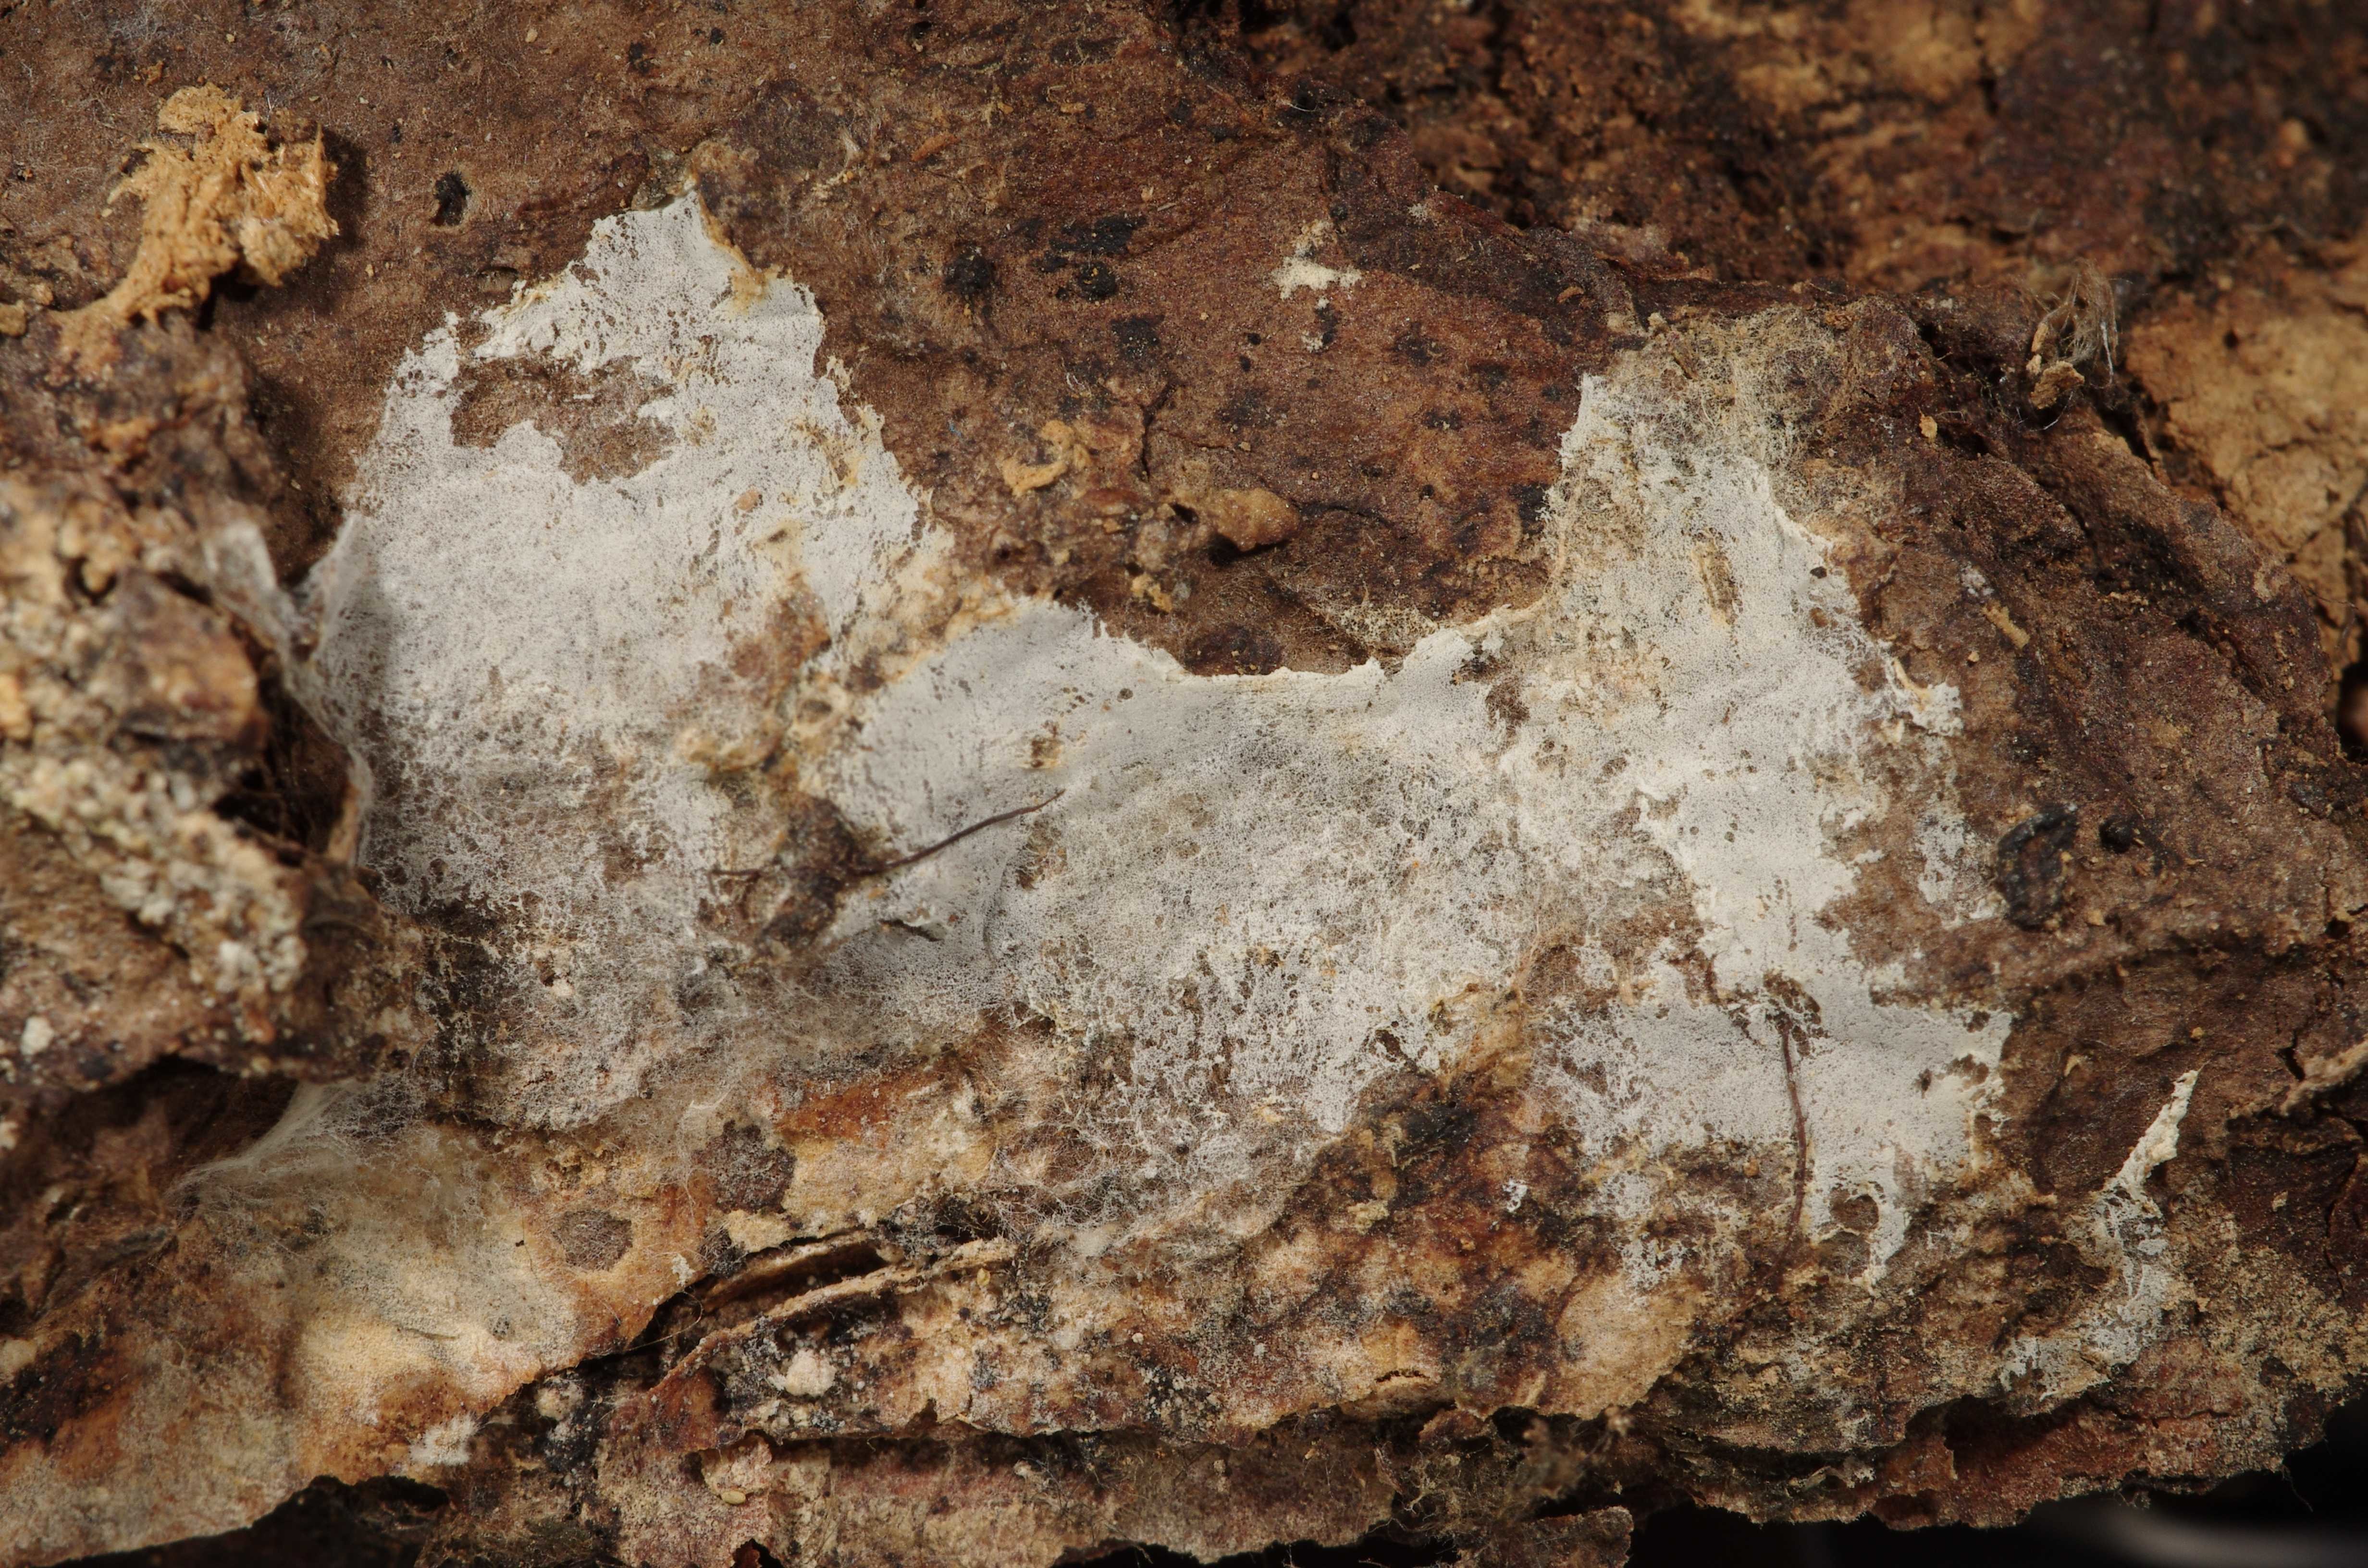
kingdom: Fungi
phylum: Basidiomycota
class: Agaricomycetes
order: Atheliales
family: Atheliaceae
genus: Athelia
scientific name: Athelia subovata
